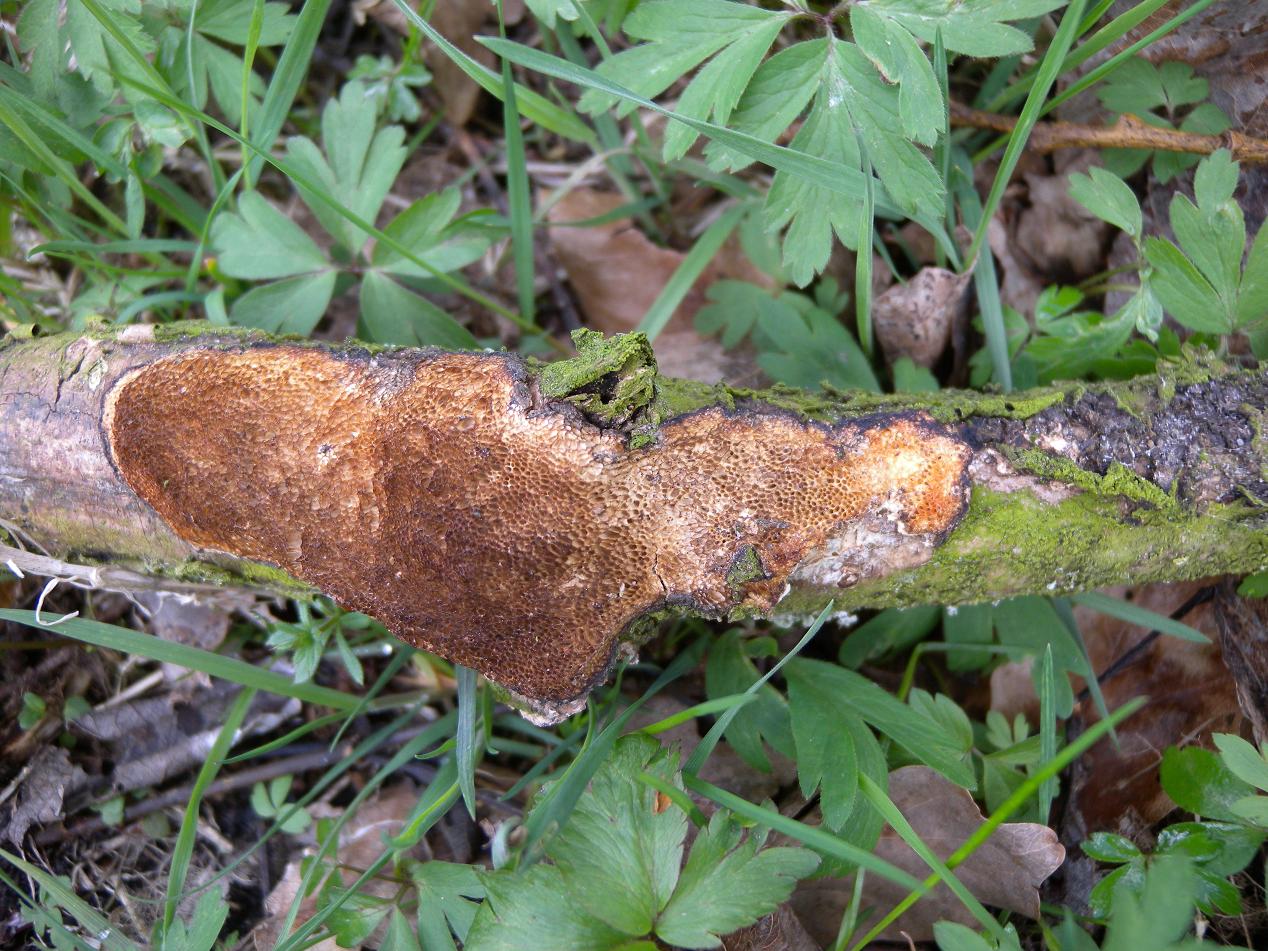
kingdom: Fungi
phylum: Basidiomycota
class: Agaricomycetes
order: Polyporales
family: Polyporaceae
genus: Szczepkamyces
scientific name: Szczepkamyces campestris
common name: hasselporesvamp
